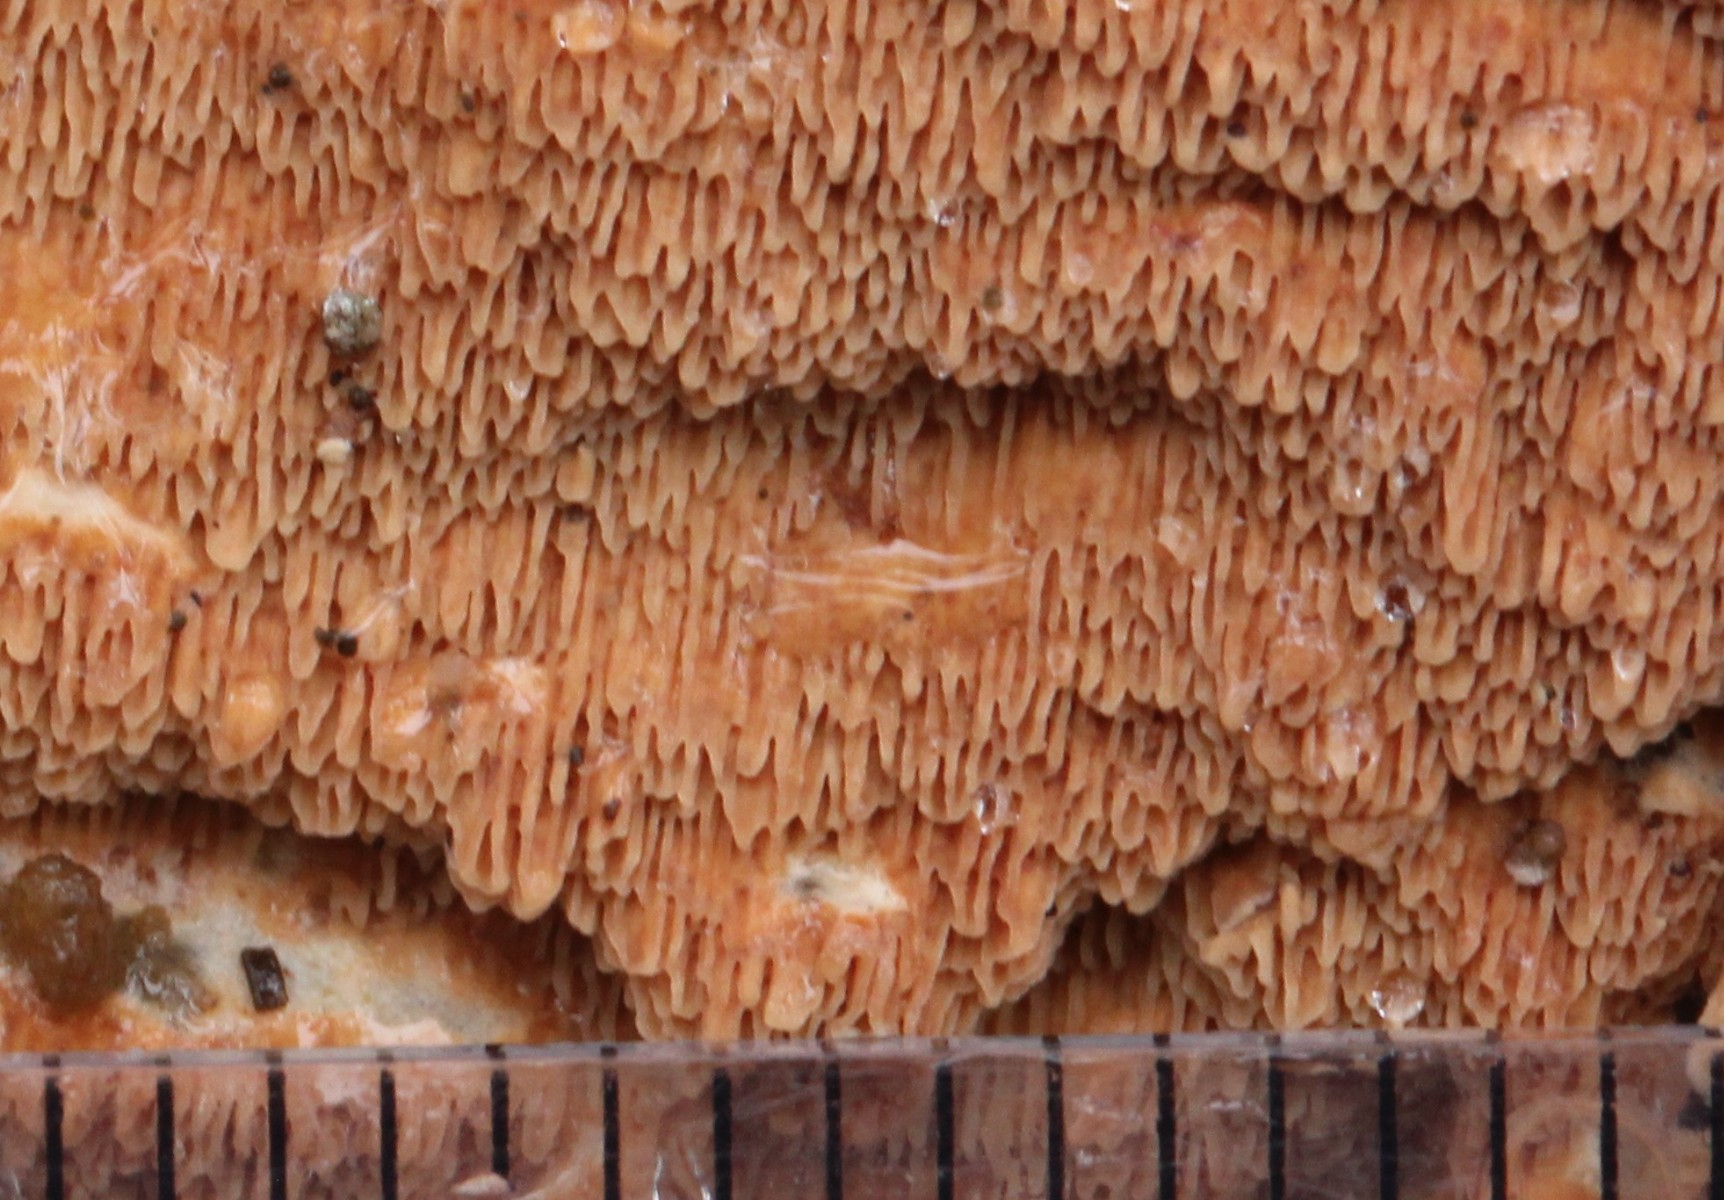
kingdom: Fungi
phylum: Basidiomycota
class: Agaricomycetes
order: Polyporales
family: Irpicaceae
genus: Meruliopsis
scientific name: Meruliopsis taxicola
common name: purpurbrun foldporesvamp
